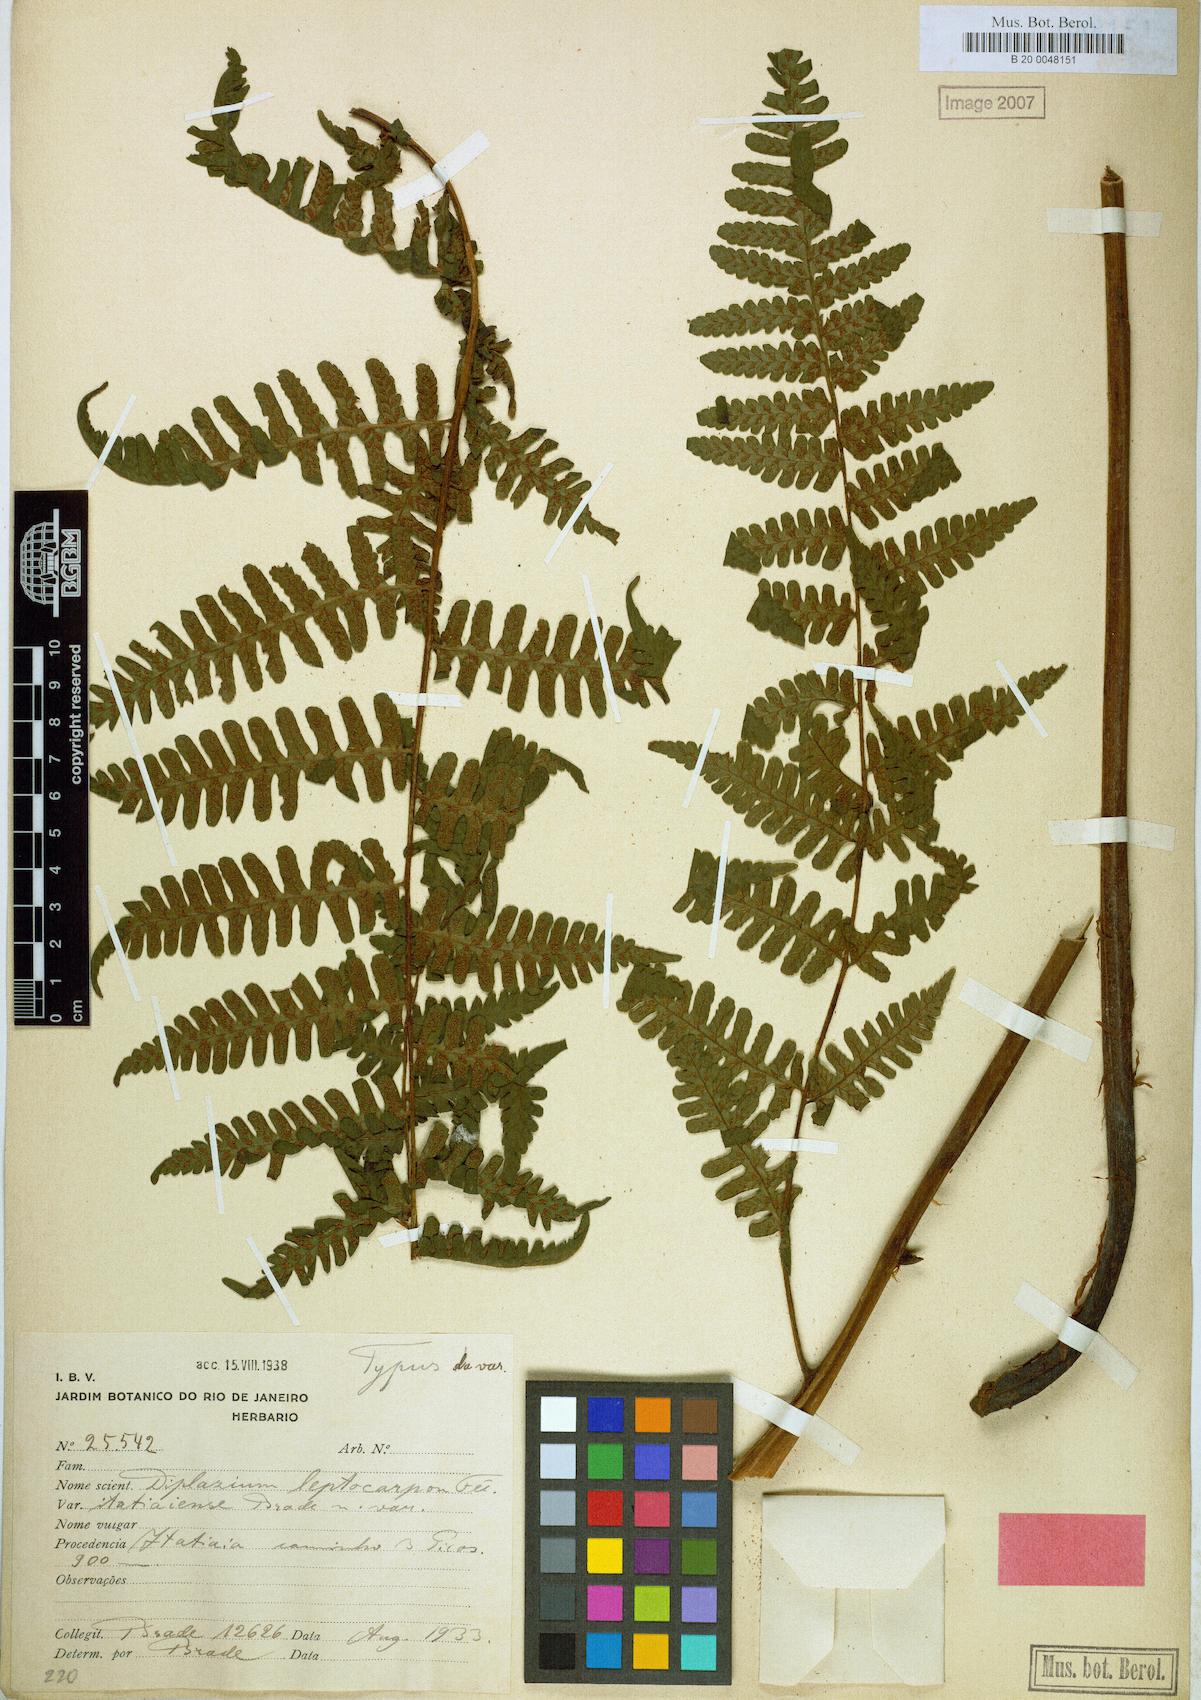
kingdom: Plantae
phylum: Tracheophyta
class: Polypodiopsida
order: Polypodiales
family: Athyriaceae
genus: Diplazium
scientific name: Diplazium leptocarpon
